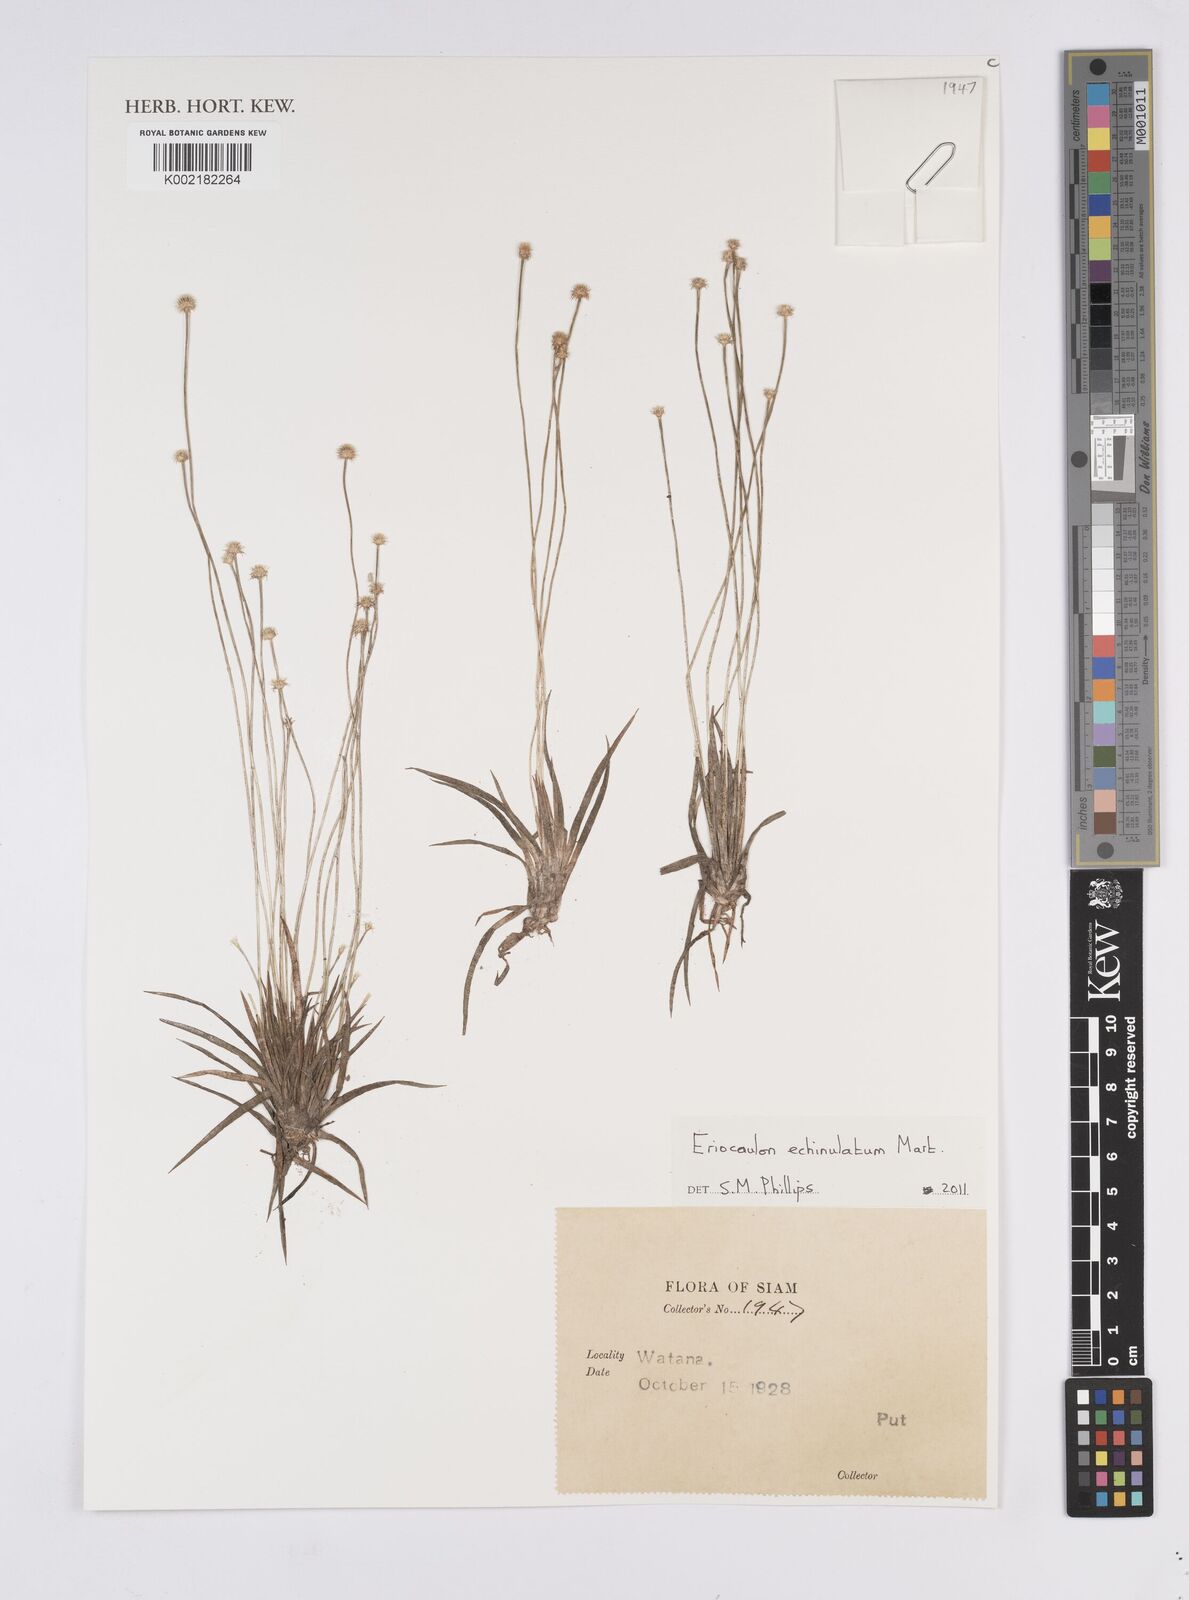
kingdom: Plantae
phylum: Tracheophyta
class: Liliopsida
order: Poales
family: Eriocaulaceae
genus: Eriocaulon
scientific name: Eriocaulon echinulatum
